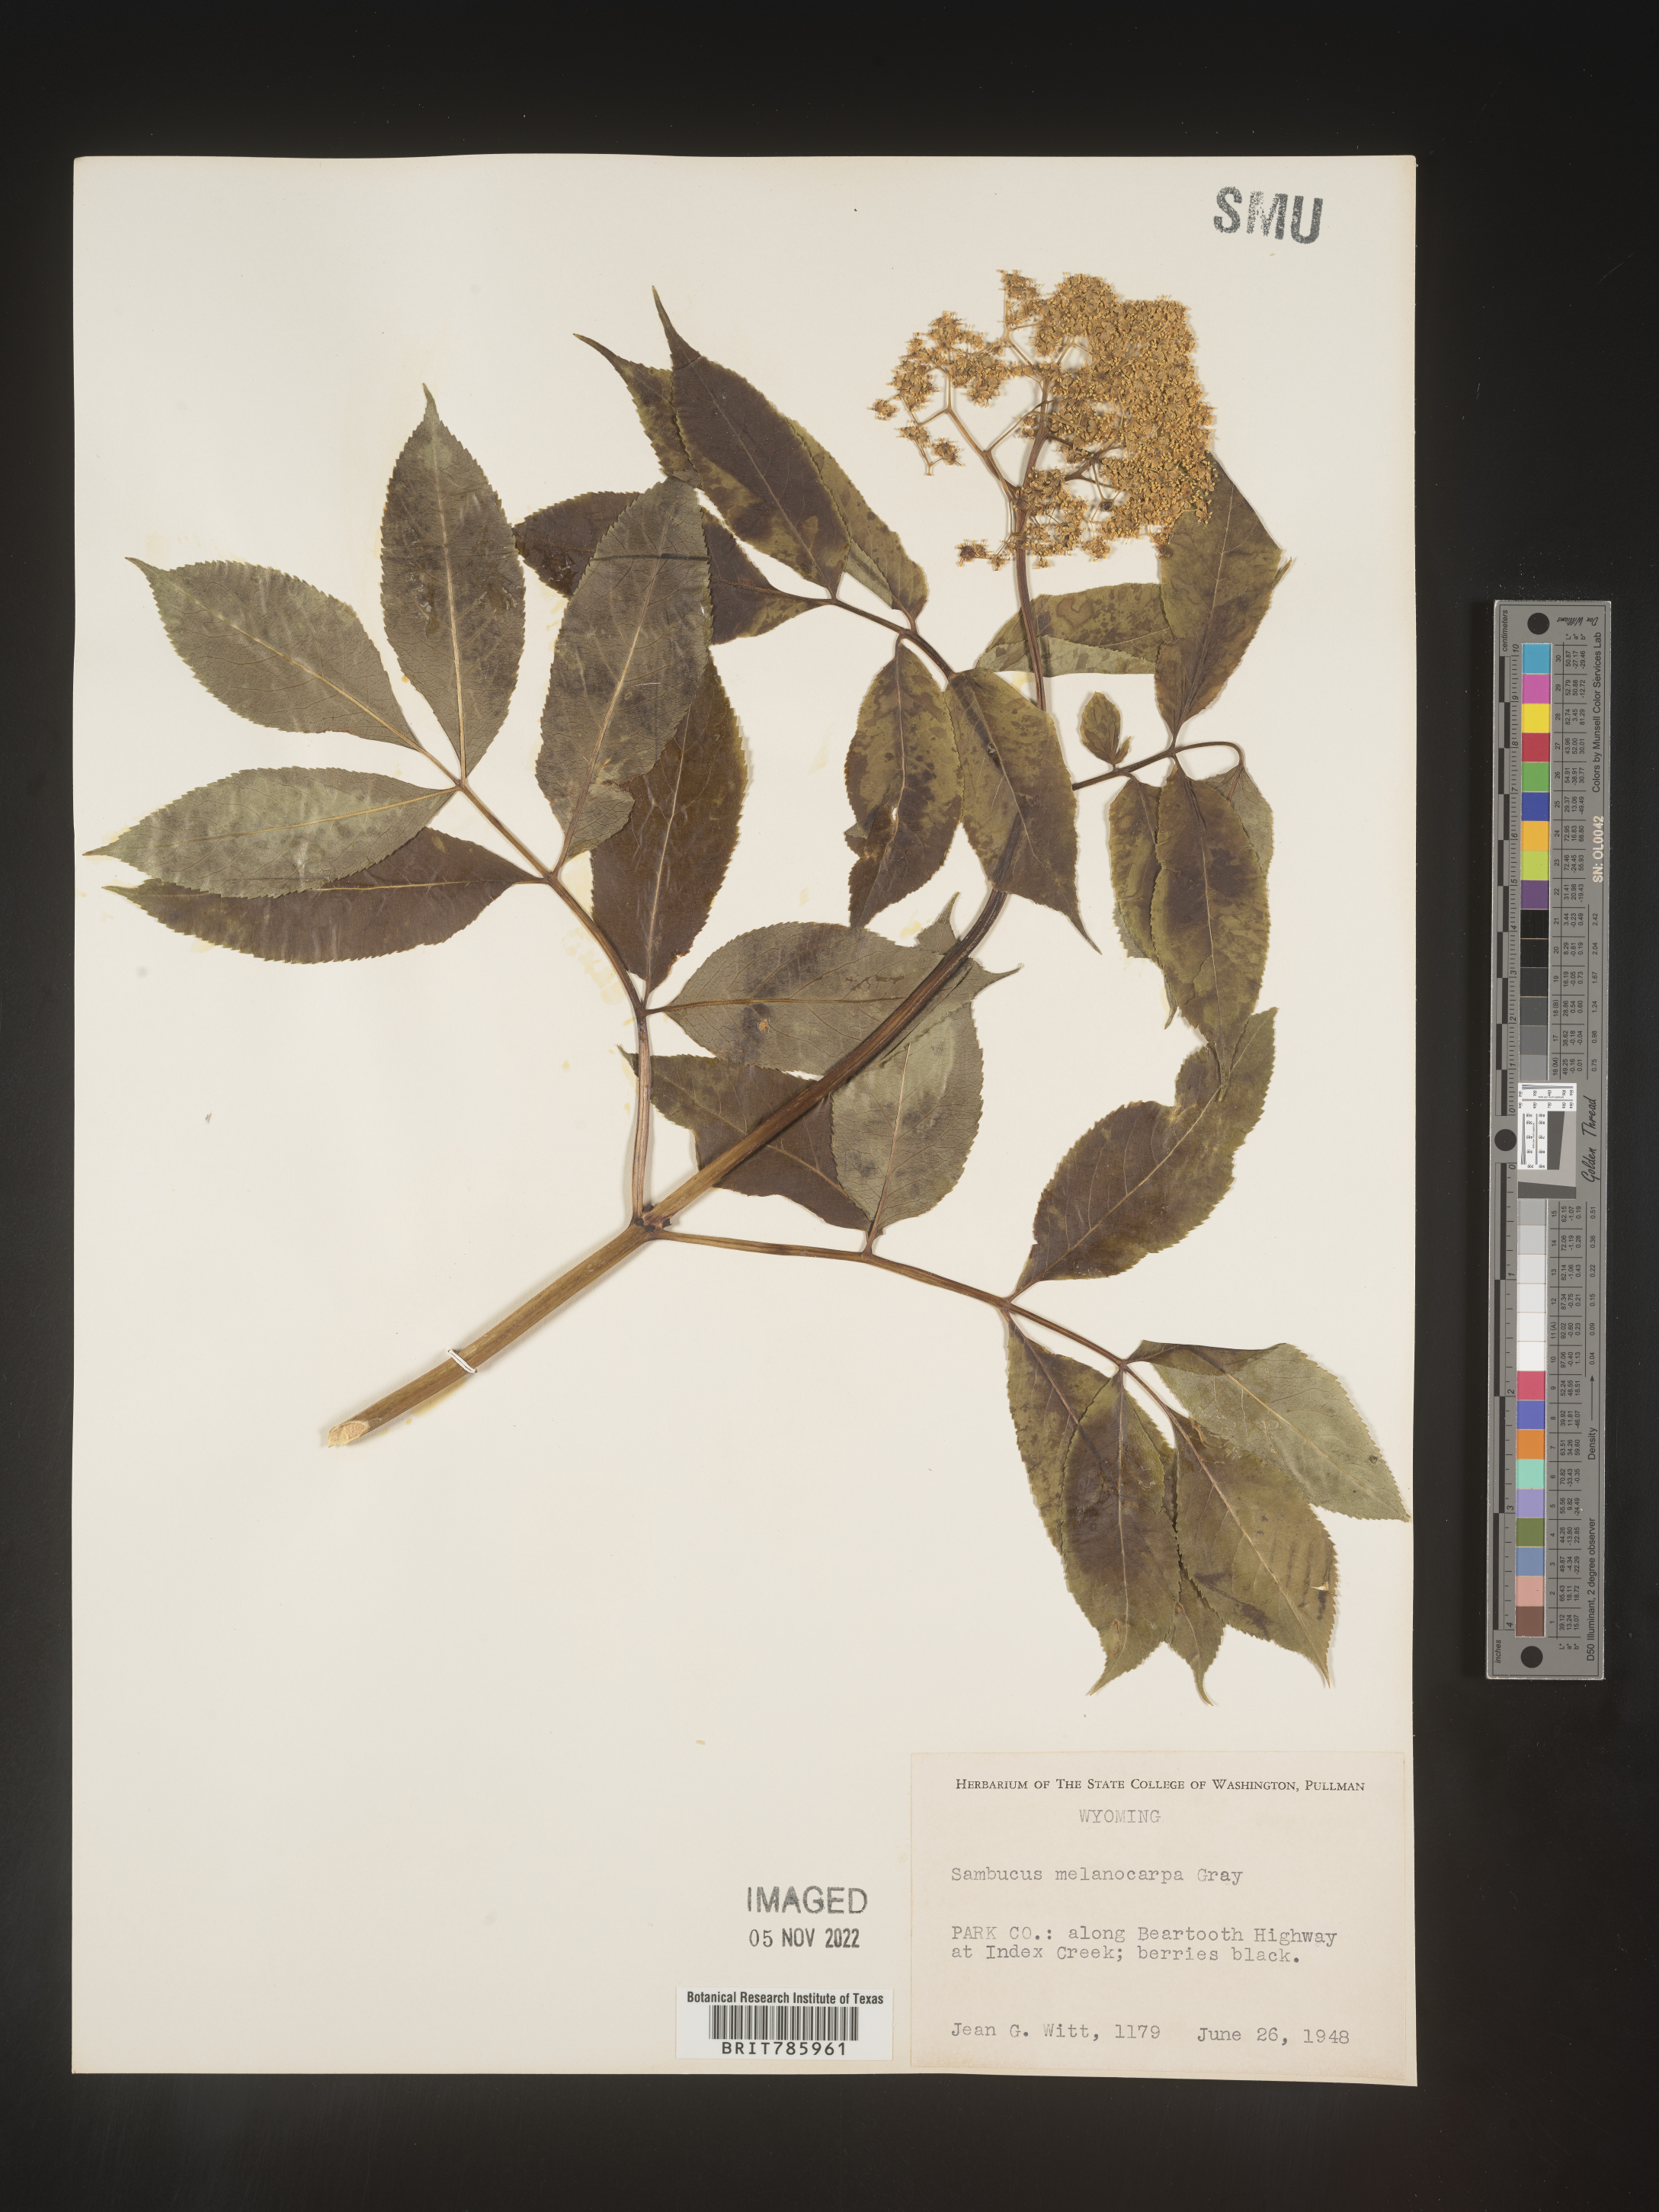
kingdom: Plantae
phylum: Tracheophyta
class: Magnoliopsida
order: Dipsacales
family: Viburnaceae
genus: Sambucus
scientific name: Sambucus racemosa
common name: Red-berried elder
